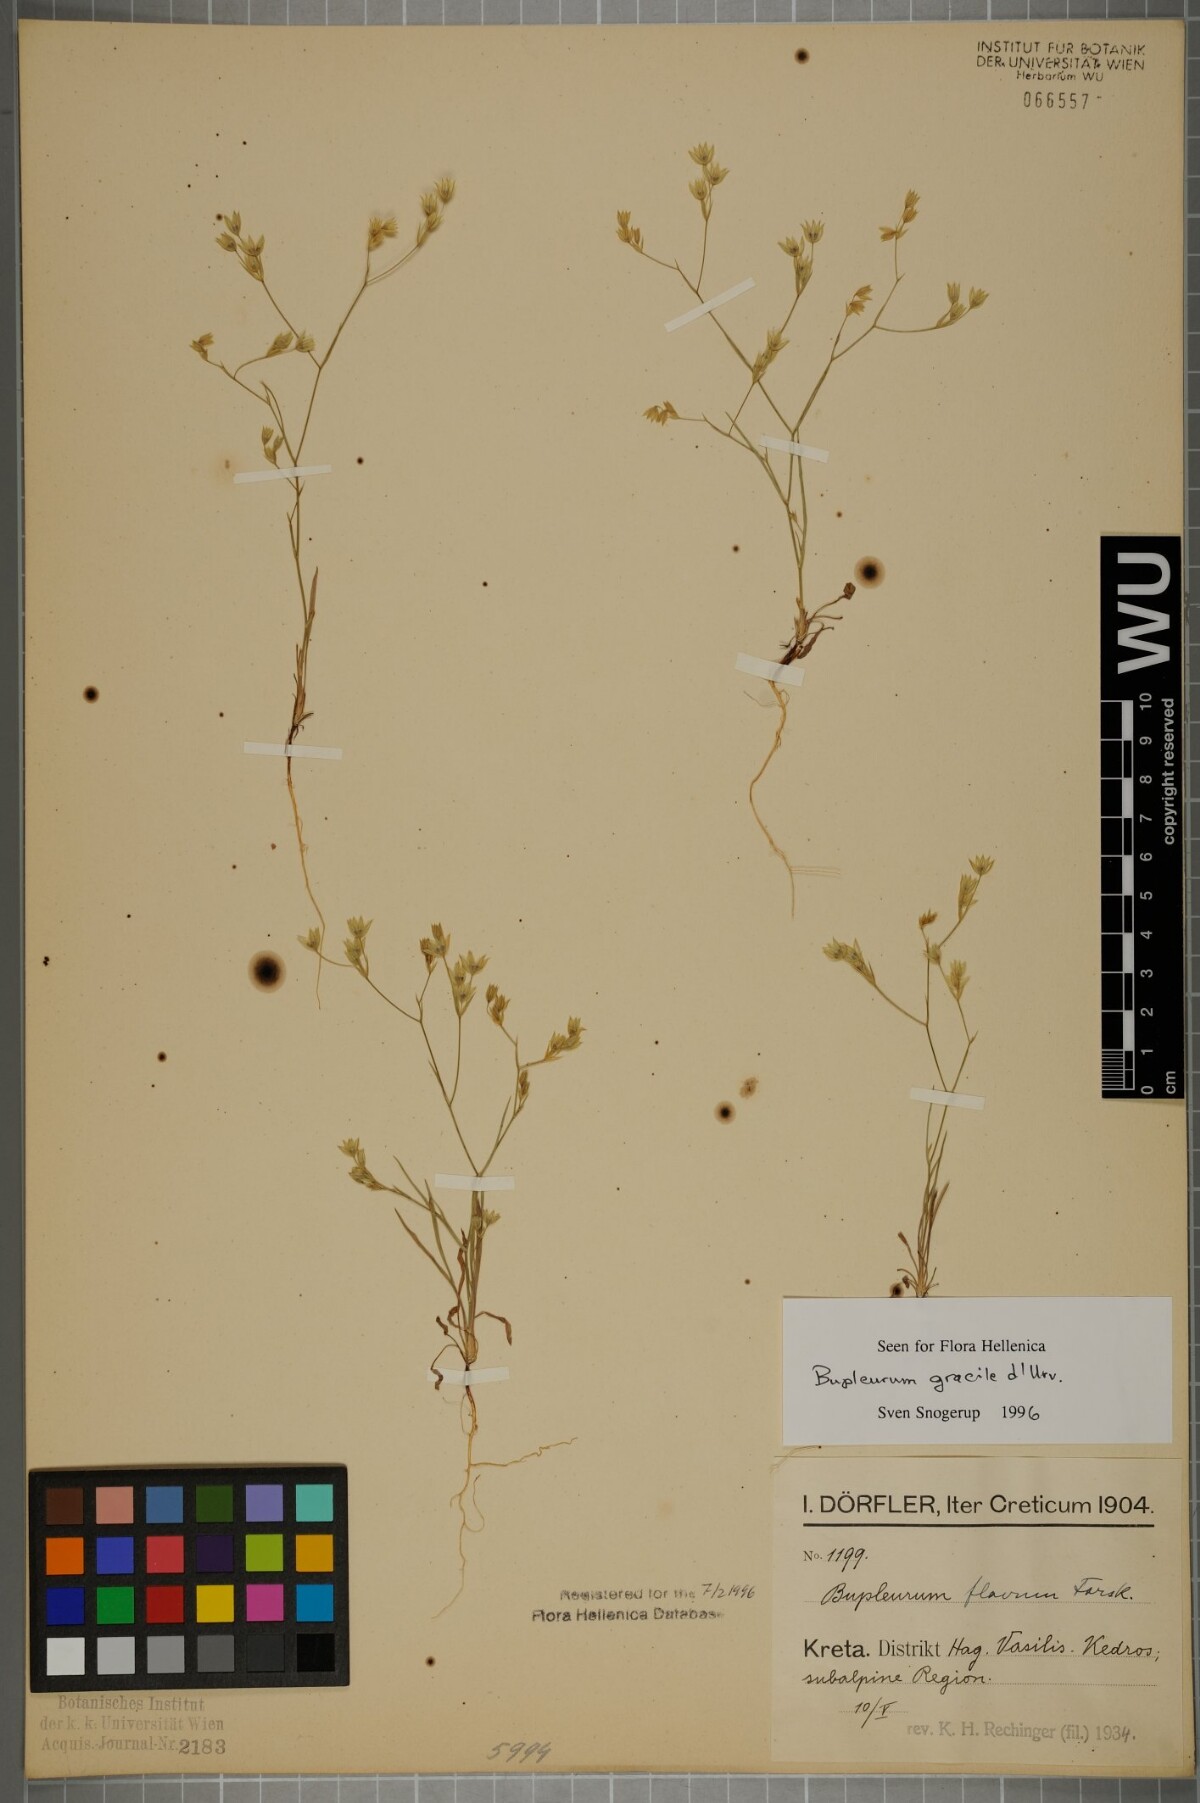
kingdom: Plantae
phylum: Tracheophyta
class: Magnoliopsida
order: Apiales
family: Apiaceae
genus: Bupleurum
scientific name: Bupleurum gracile
